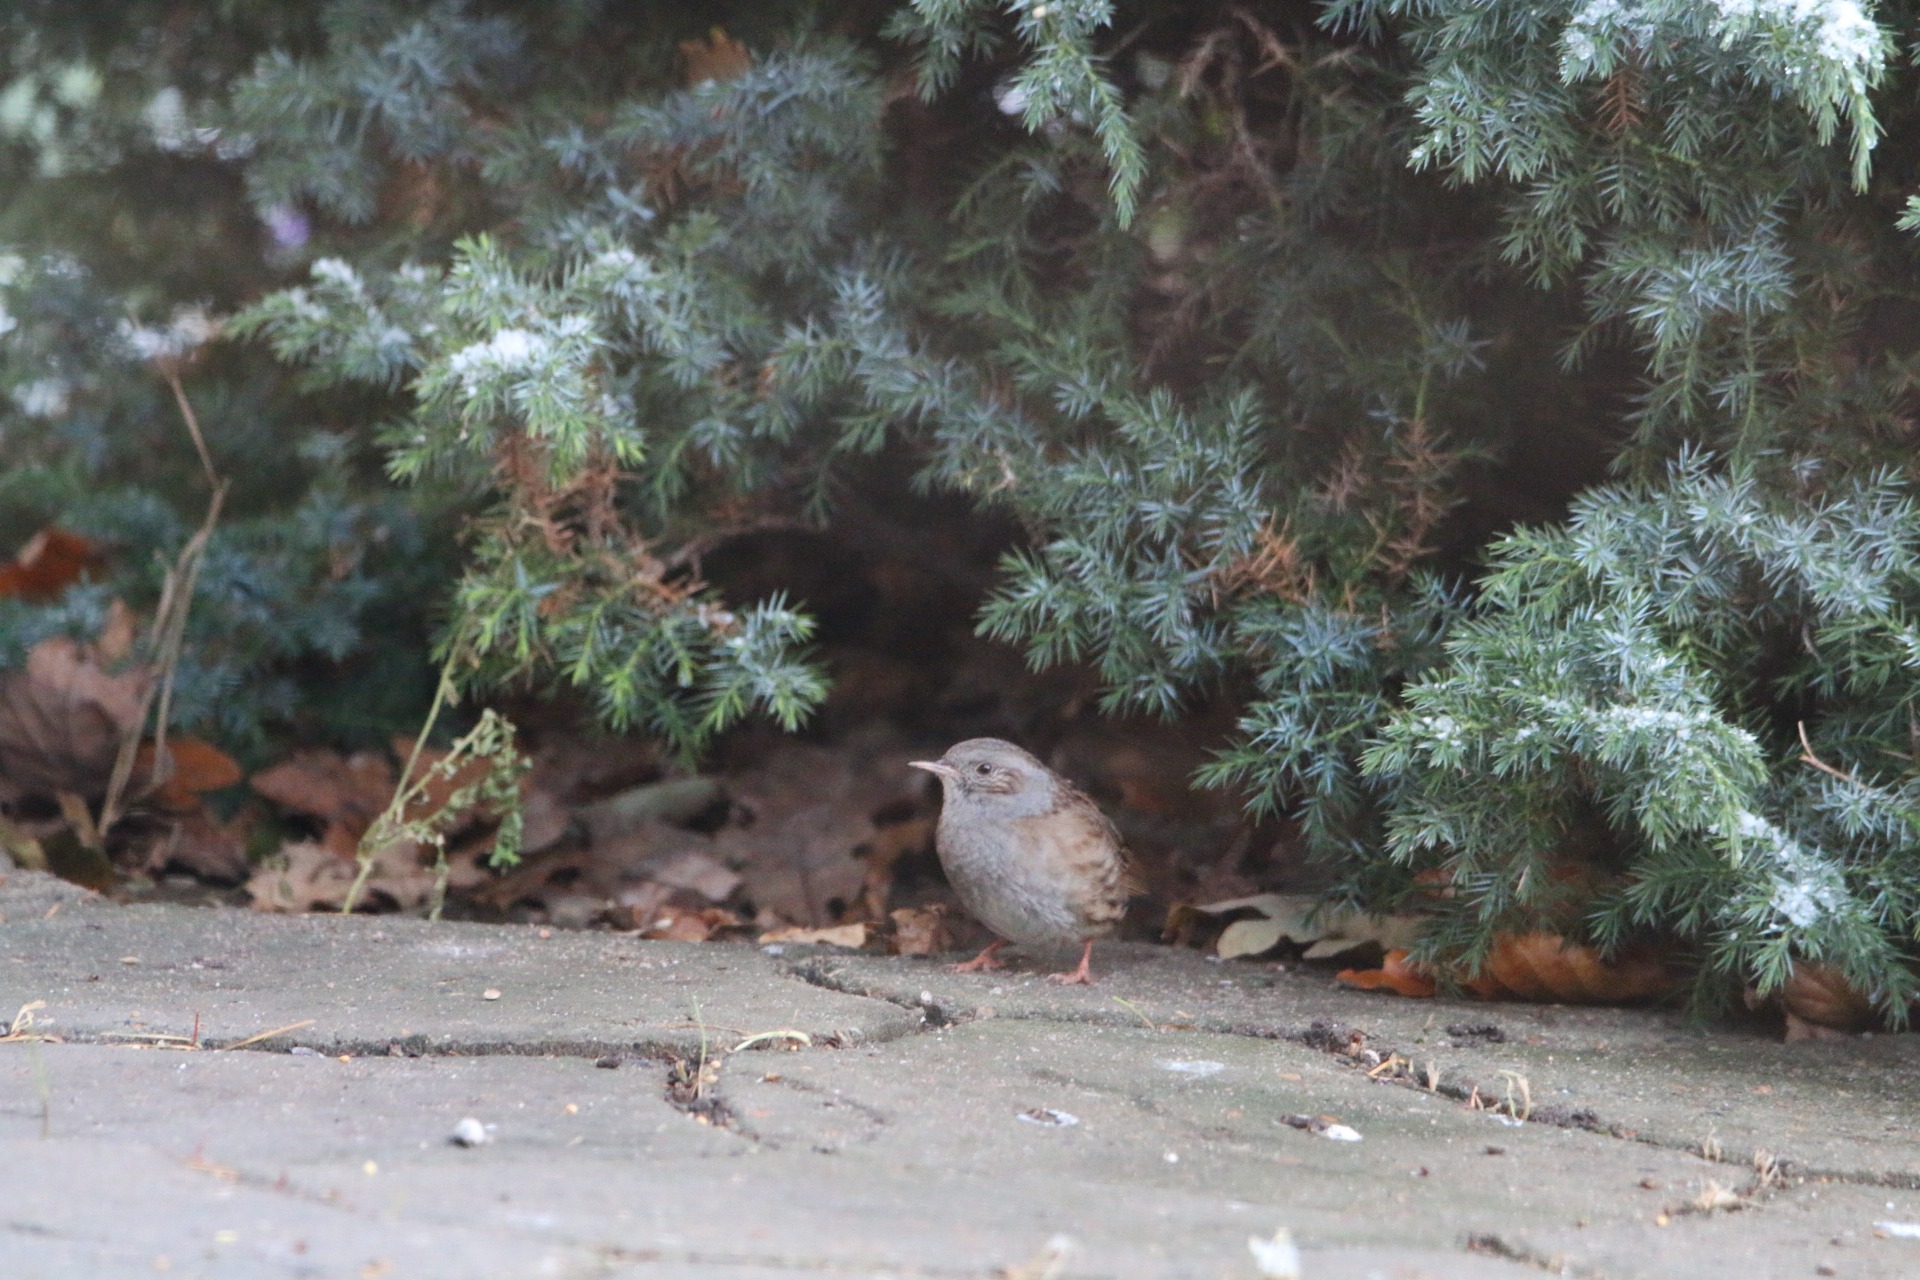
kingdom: Animalia
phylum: Chordata
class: Aves
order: Passeriformes
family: Prunellidae
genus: Prunella
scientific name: Prunella modularis
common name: Jernspurv
